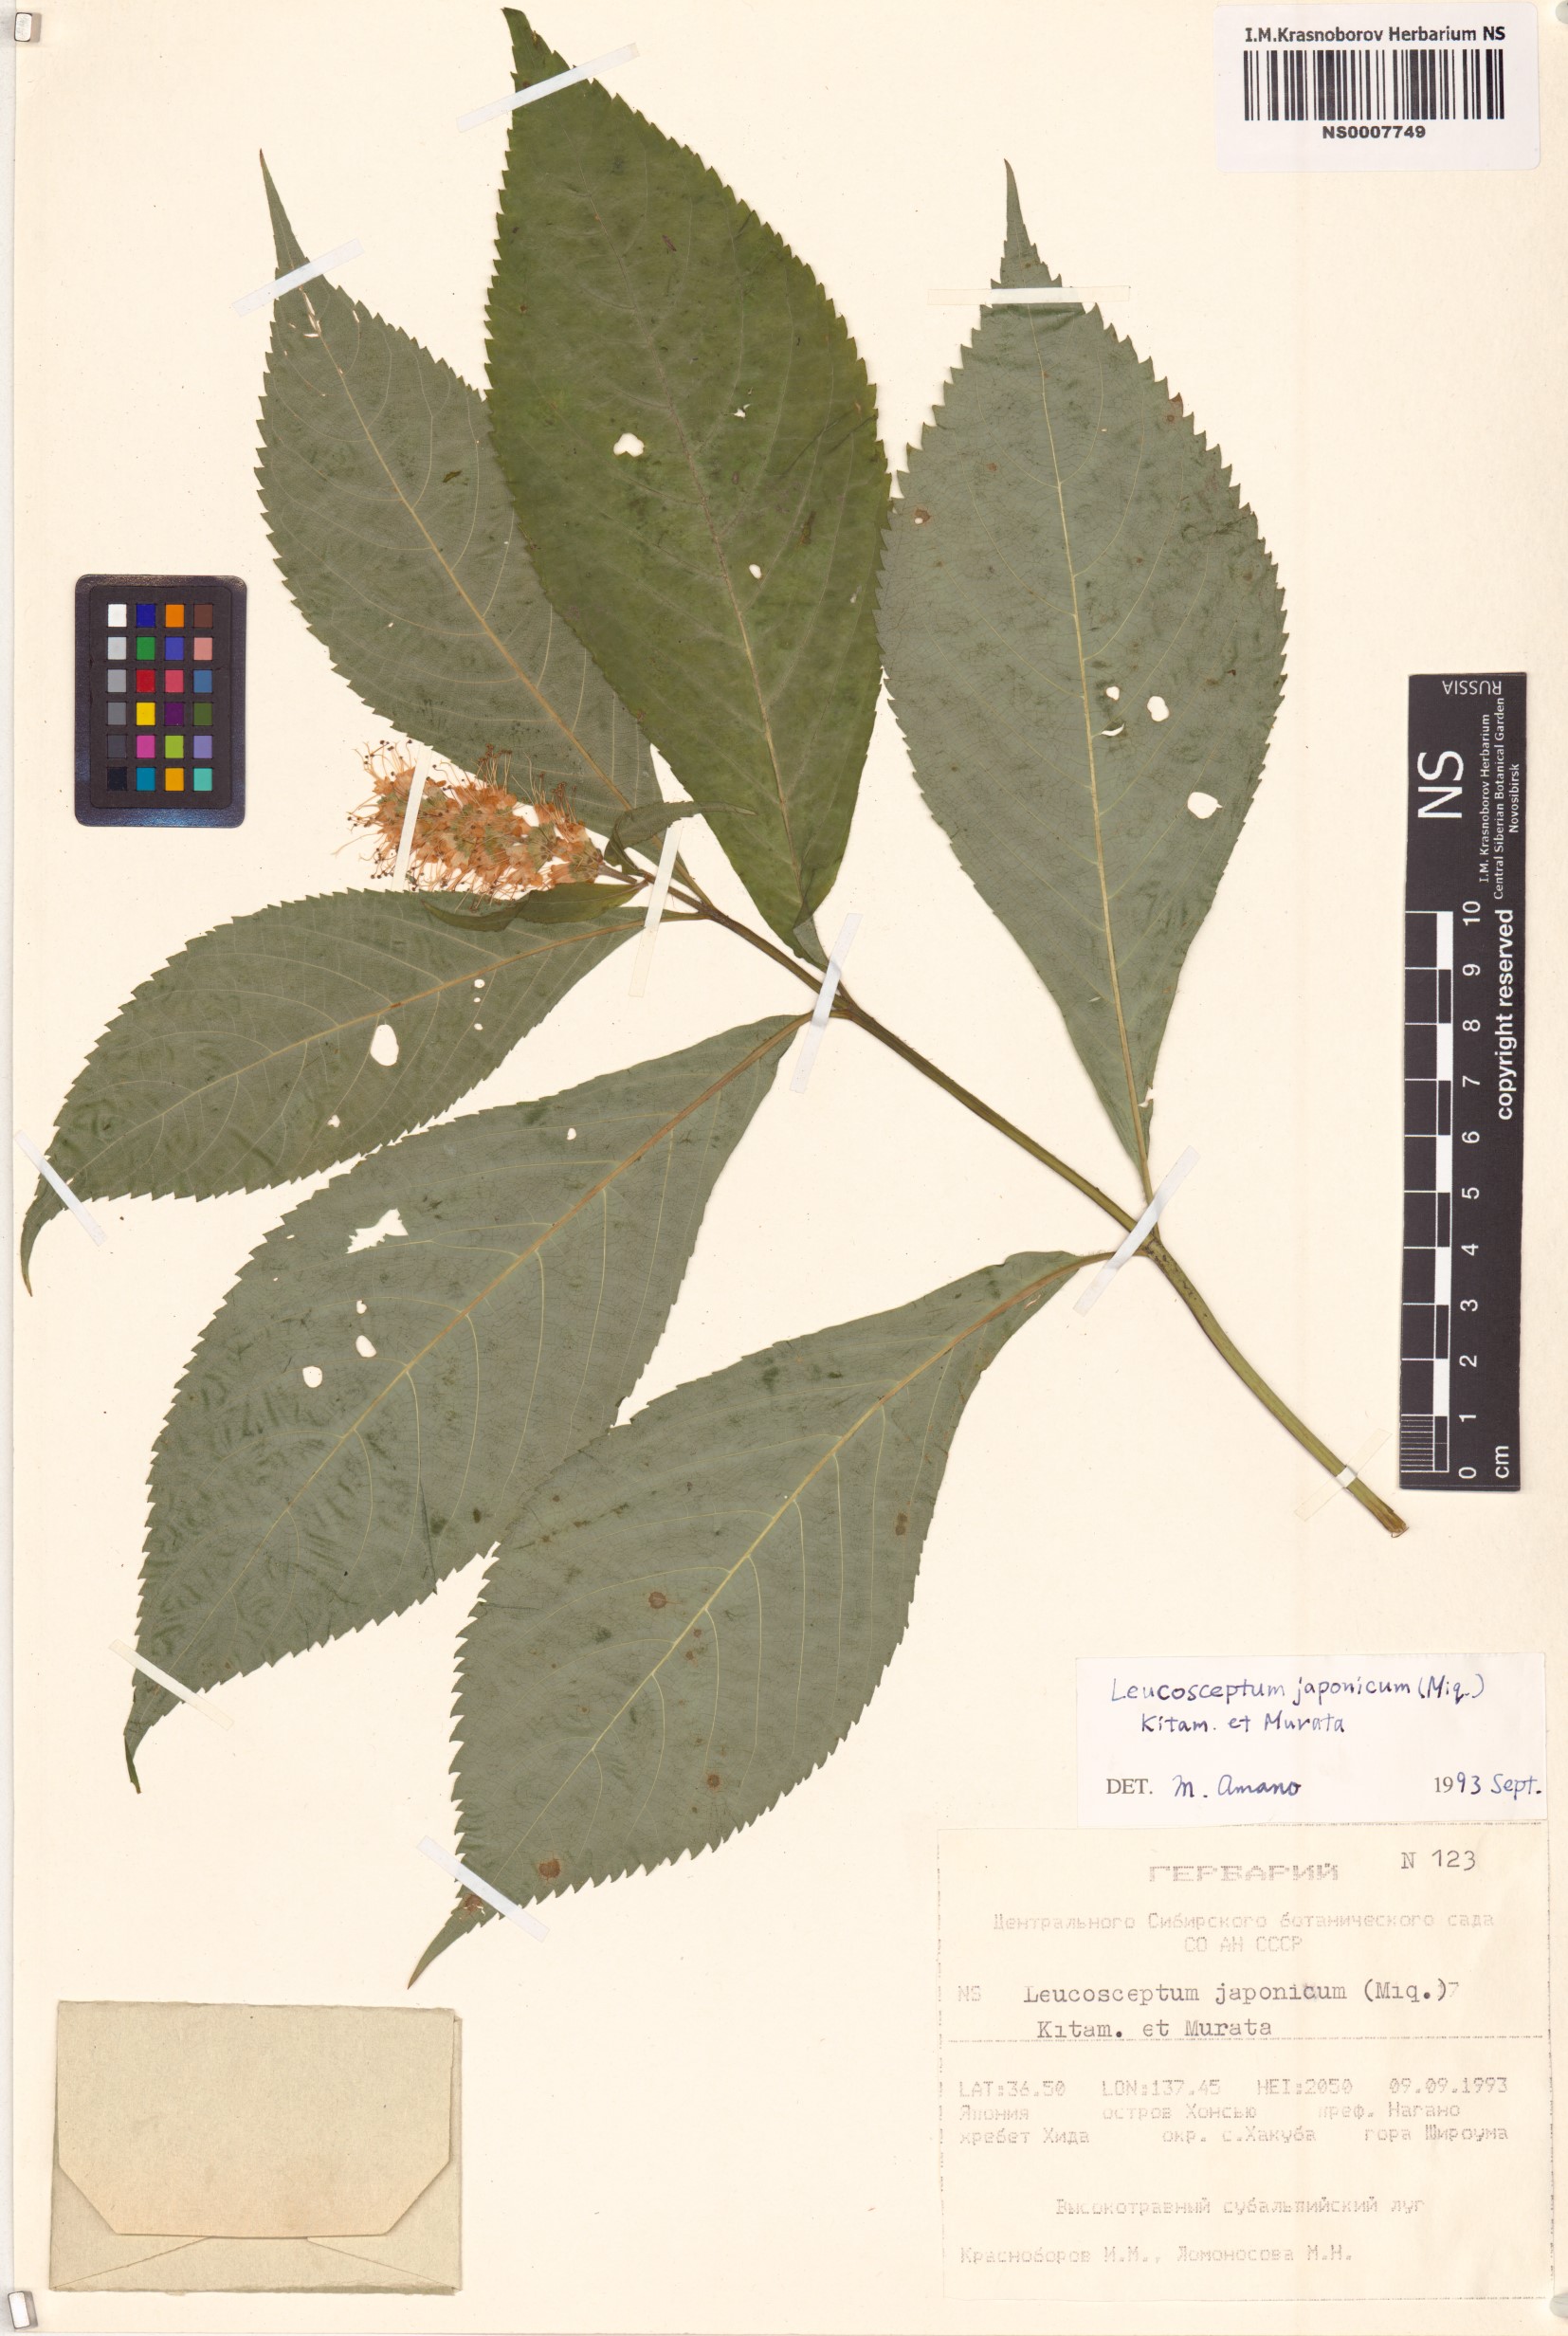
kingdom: Plantae
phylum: Tracheophyta
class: Magnoliopsida
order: Lamiales
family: Lamiaceae
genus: Comanthosphace
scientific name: Comanthosphace japonica
